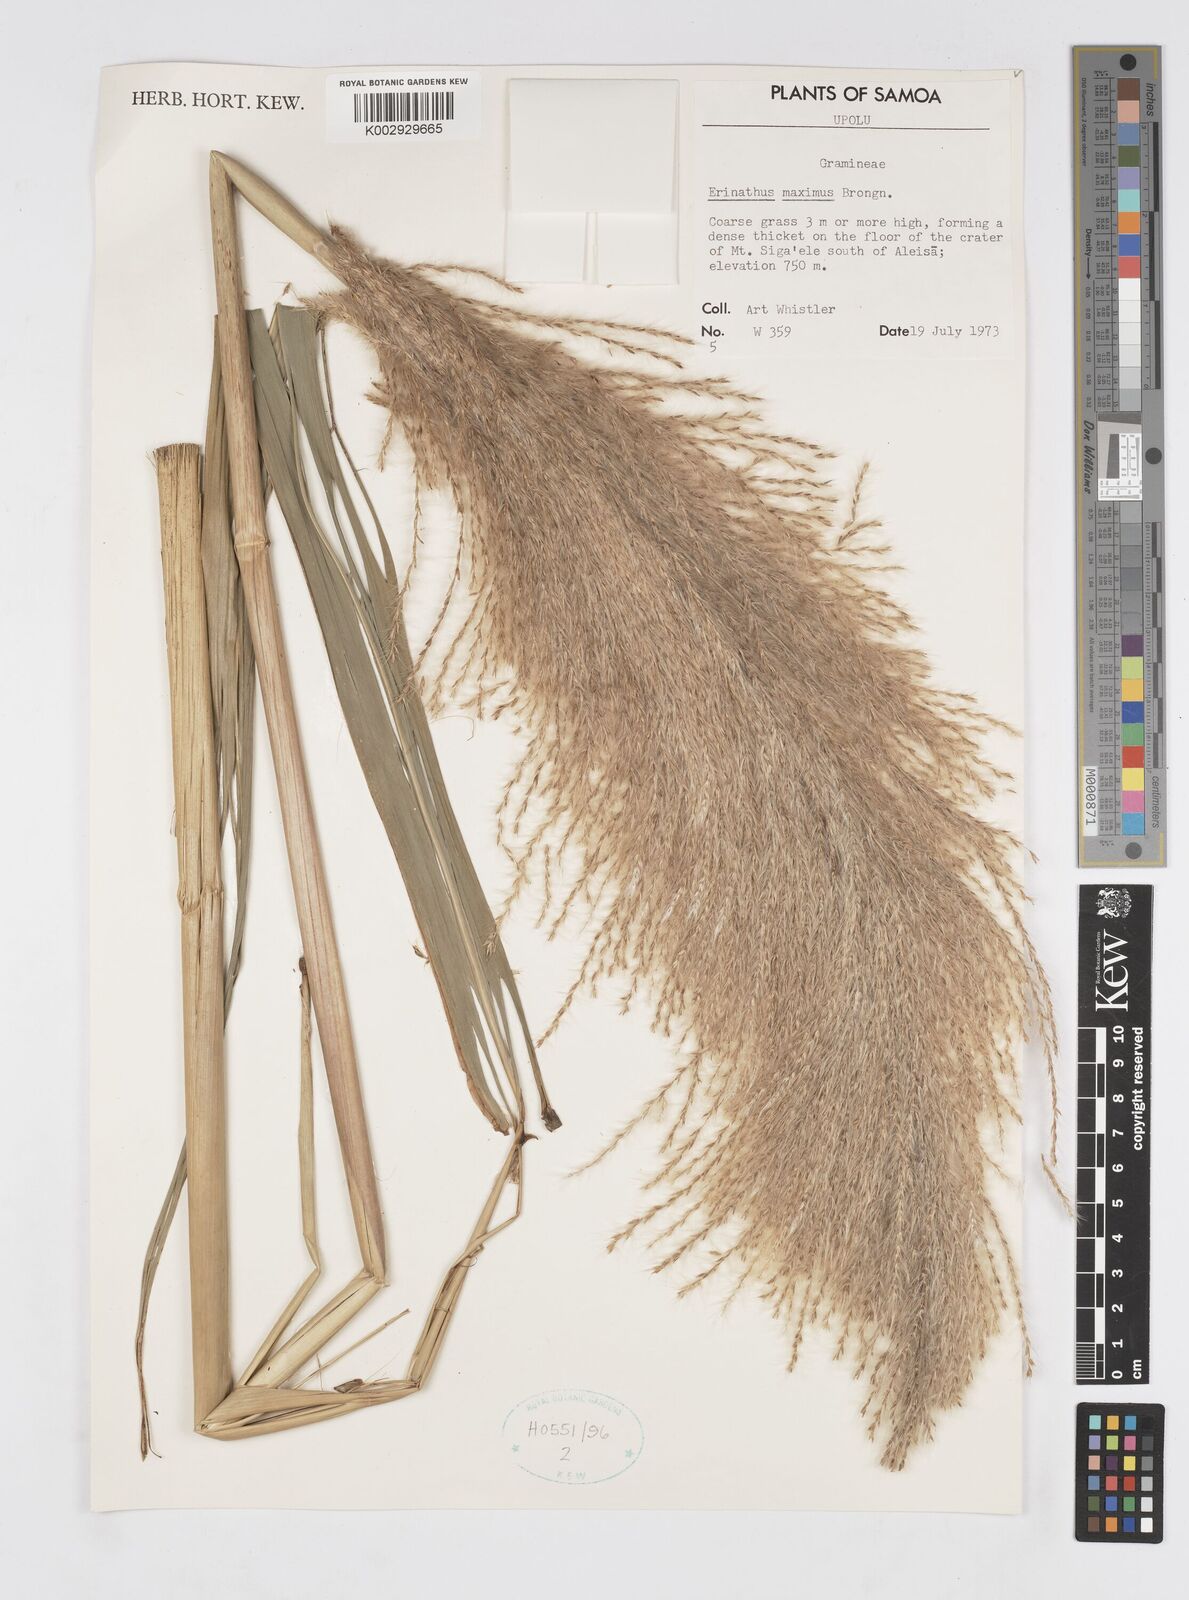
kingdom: Plantae
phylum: Tracheophyta
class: Liliopsida
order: Poales
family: Poaceae
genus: Saccharum
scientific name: Saccharum maximum
